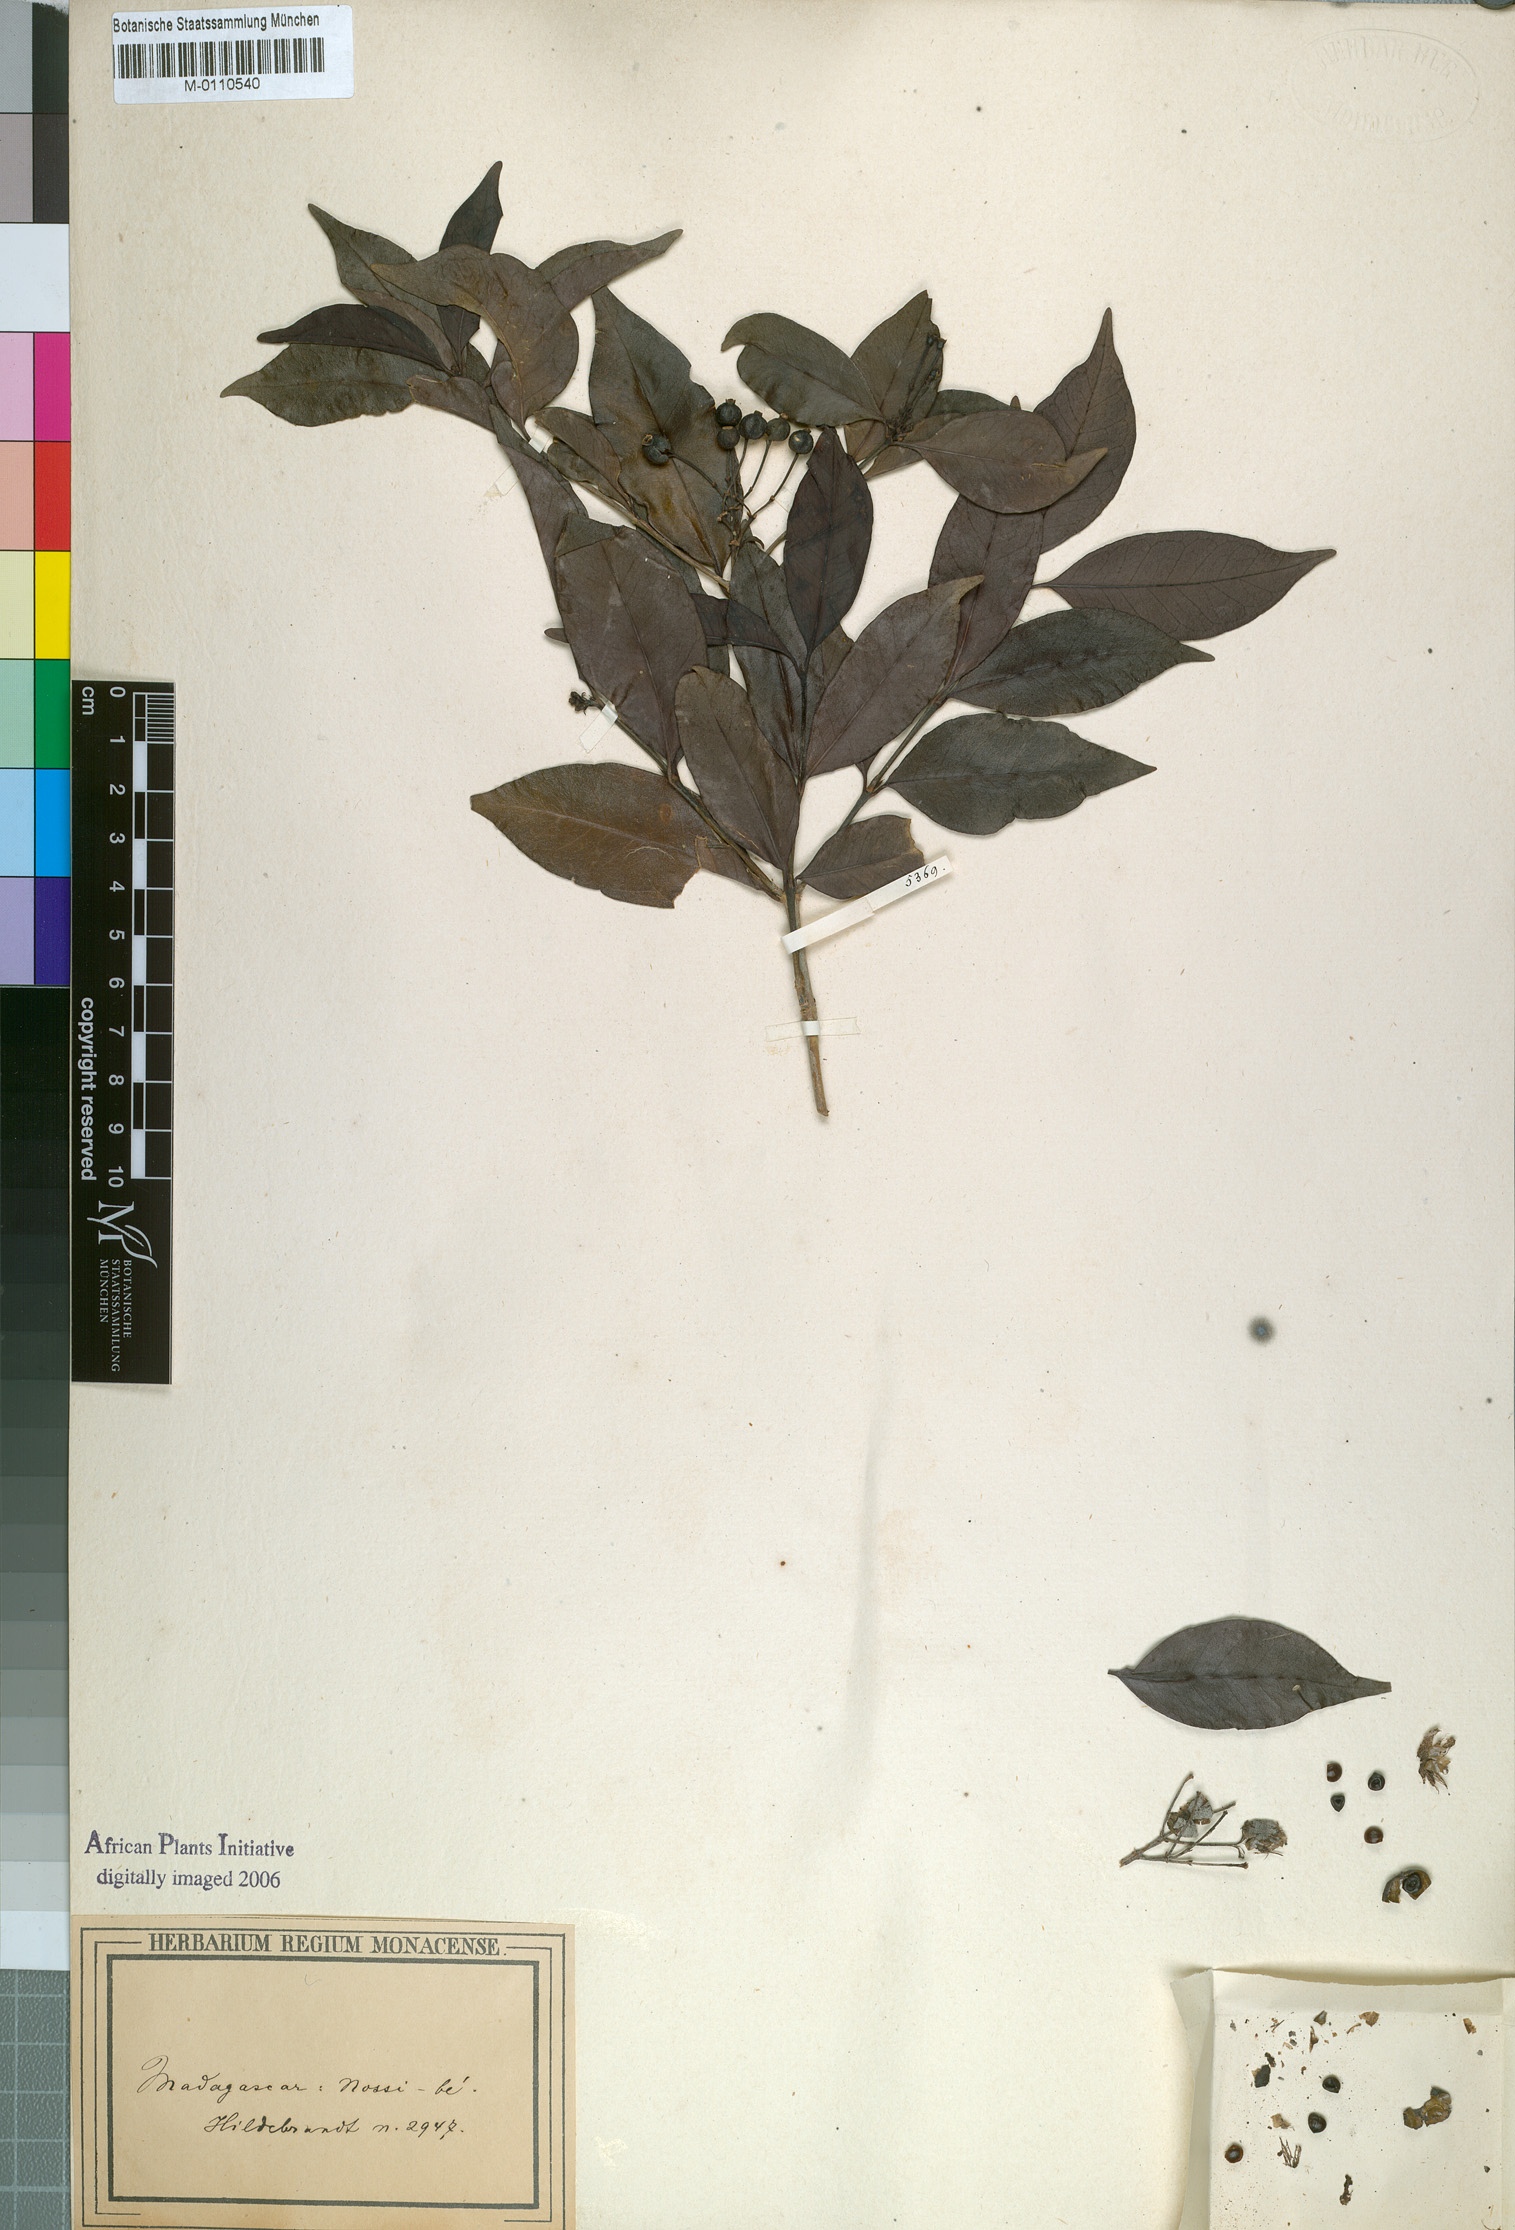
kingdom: Plantae
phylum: Tracheophyta
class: Magnoliopsida
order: Gentianales
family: Rubiaceae
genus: Tarenna
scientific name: Tarenna sechellensis
